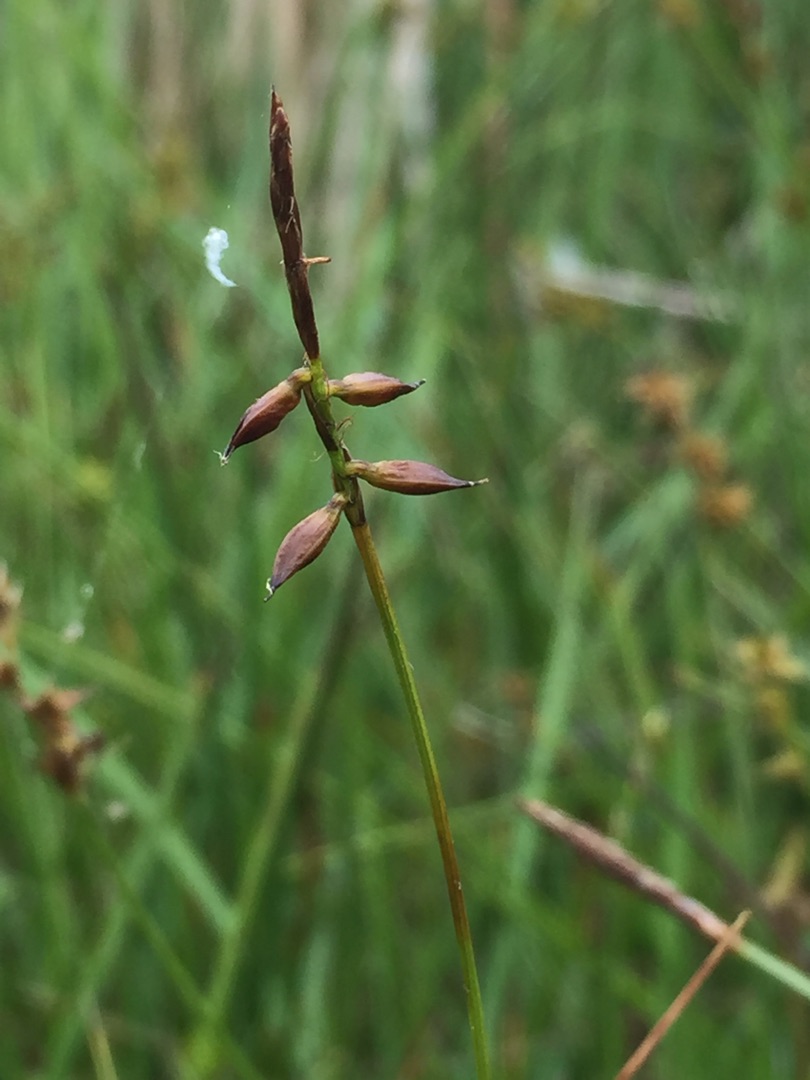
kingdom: Plantae
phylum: Tracheophyta
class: Liliopsida
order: Poales
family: Cyperaceae
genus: Carex
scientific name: Carex pulicaris
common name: Loppe-star
